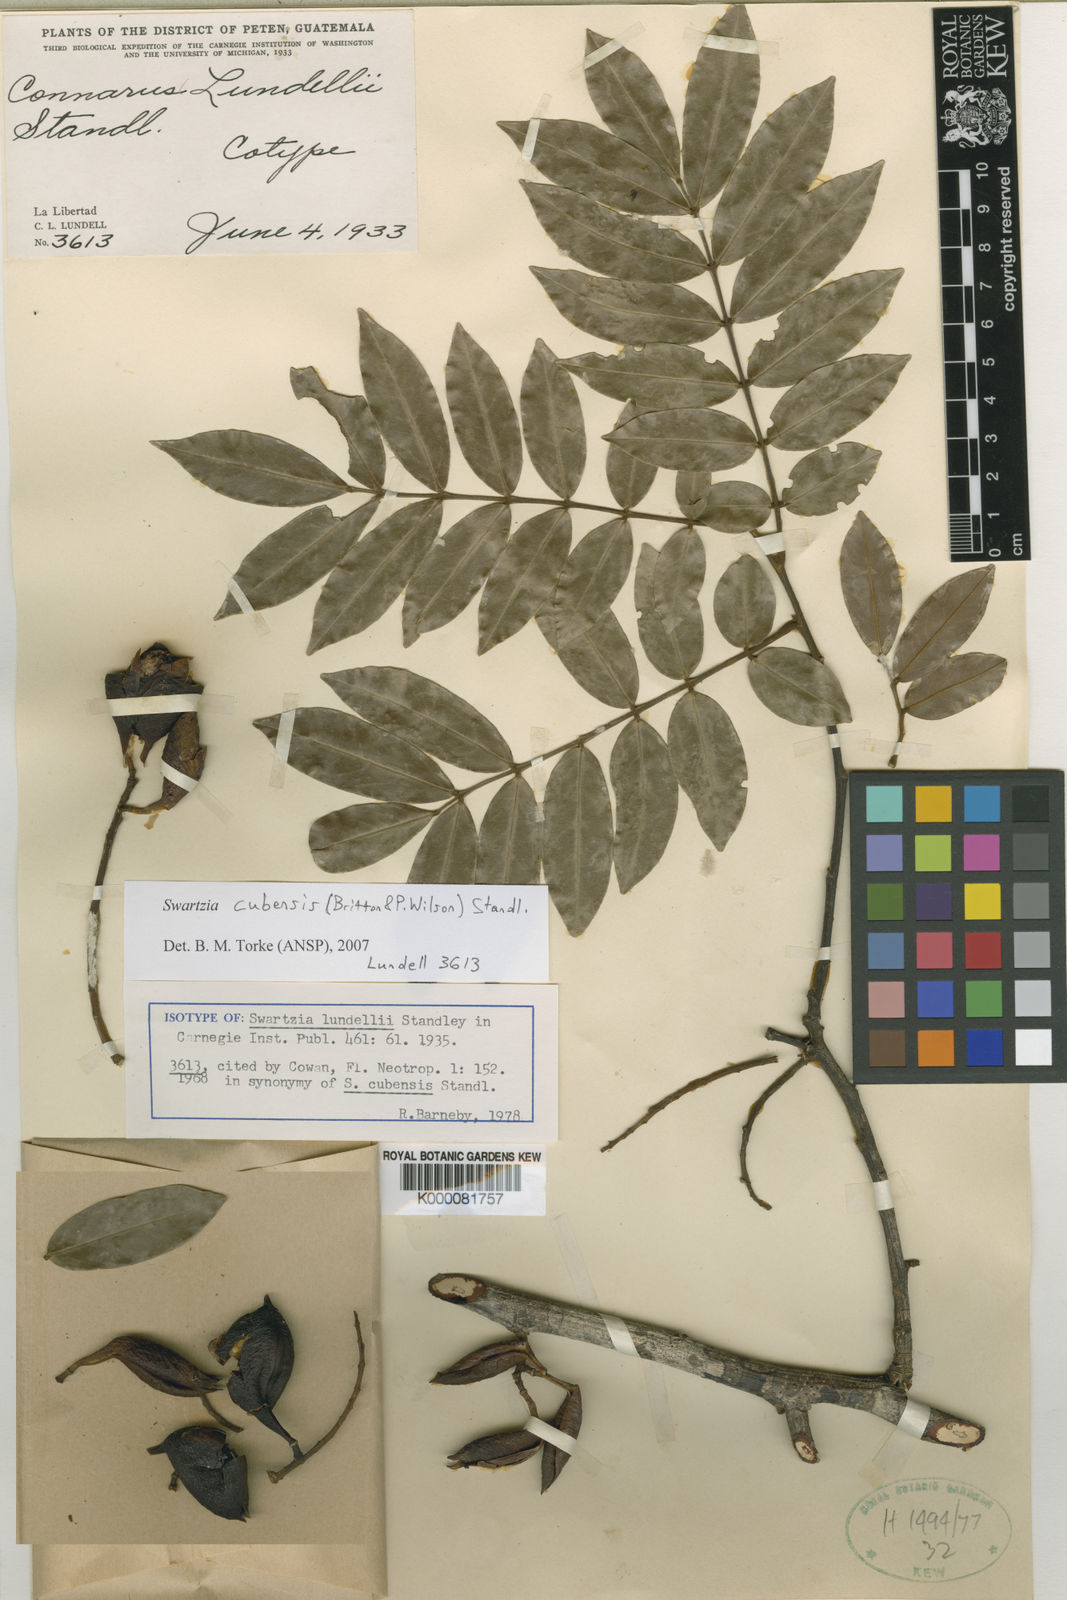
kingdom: Plantae
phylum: Tracheophyta
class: Magnoliopsida
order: Fabales
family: Fabaceae
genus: Swartzia
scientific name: Swartzia cubensis
